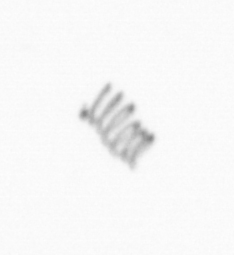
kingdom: Chromista
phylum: Ochrophyta
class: Bacillariophyceae
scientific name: Bacillariophyceae
